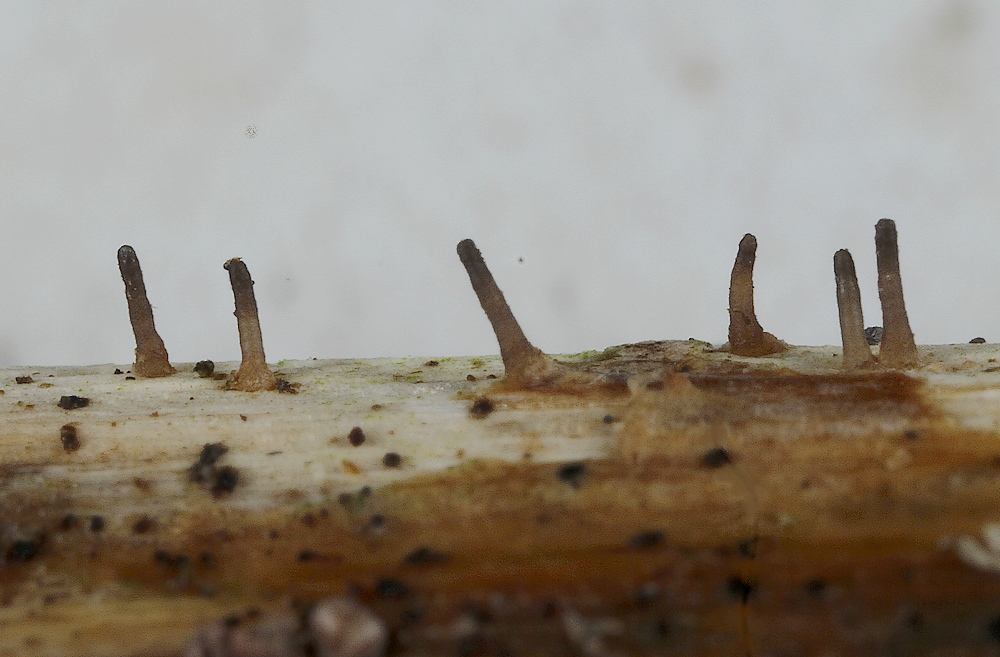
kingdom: Fungi
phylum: Ascomycota
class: Dothideomycetes
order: Acrospermales
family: Acrospermaceae
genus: Acrospermum
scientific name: Acrospermum compressum
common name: nælde-stængeltunge
